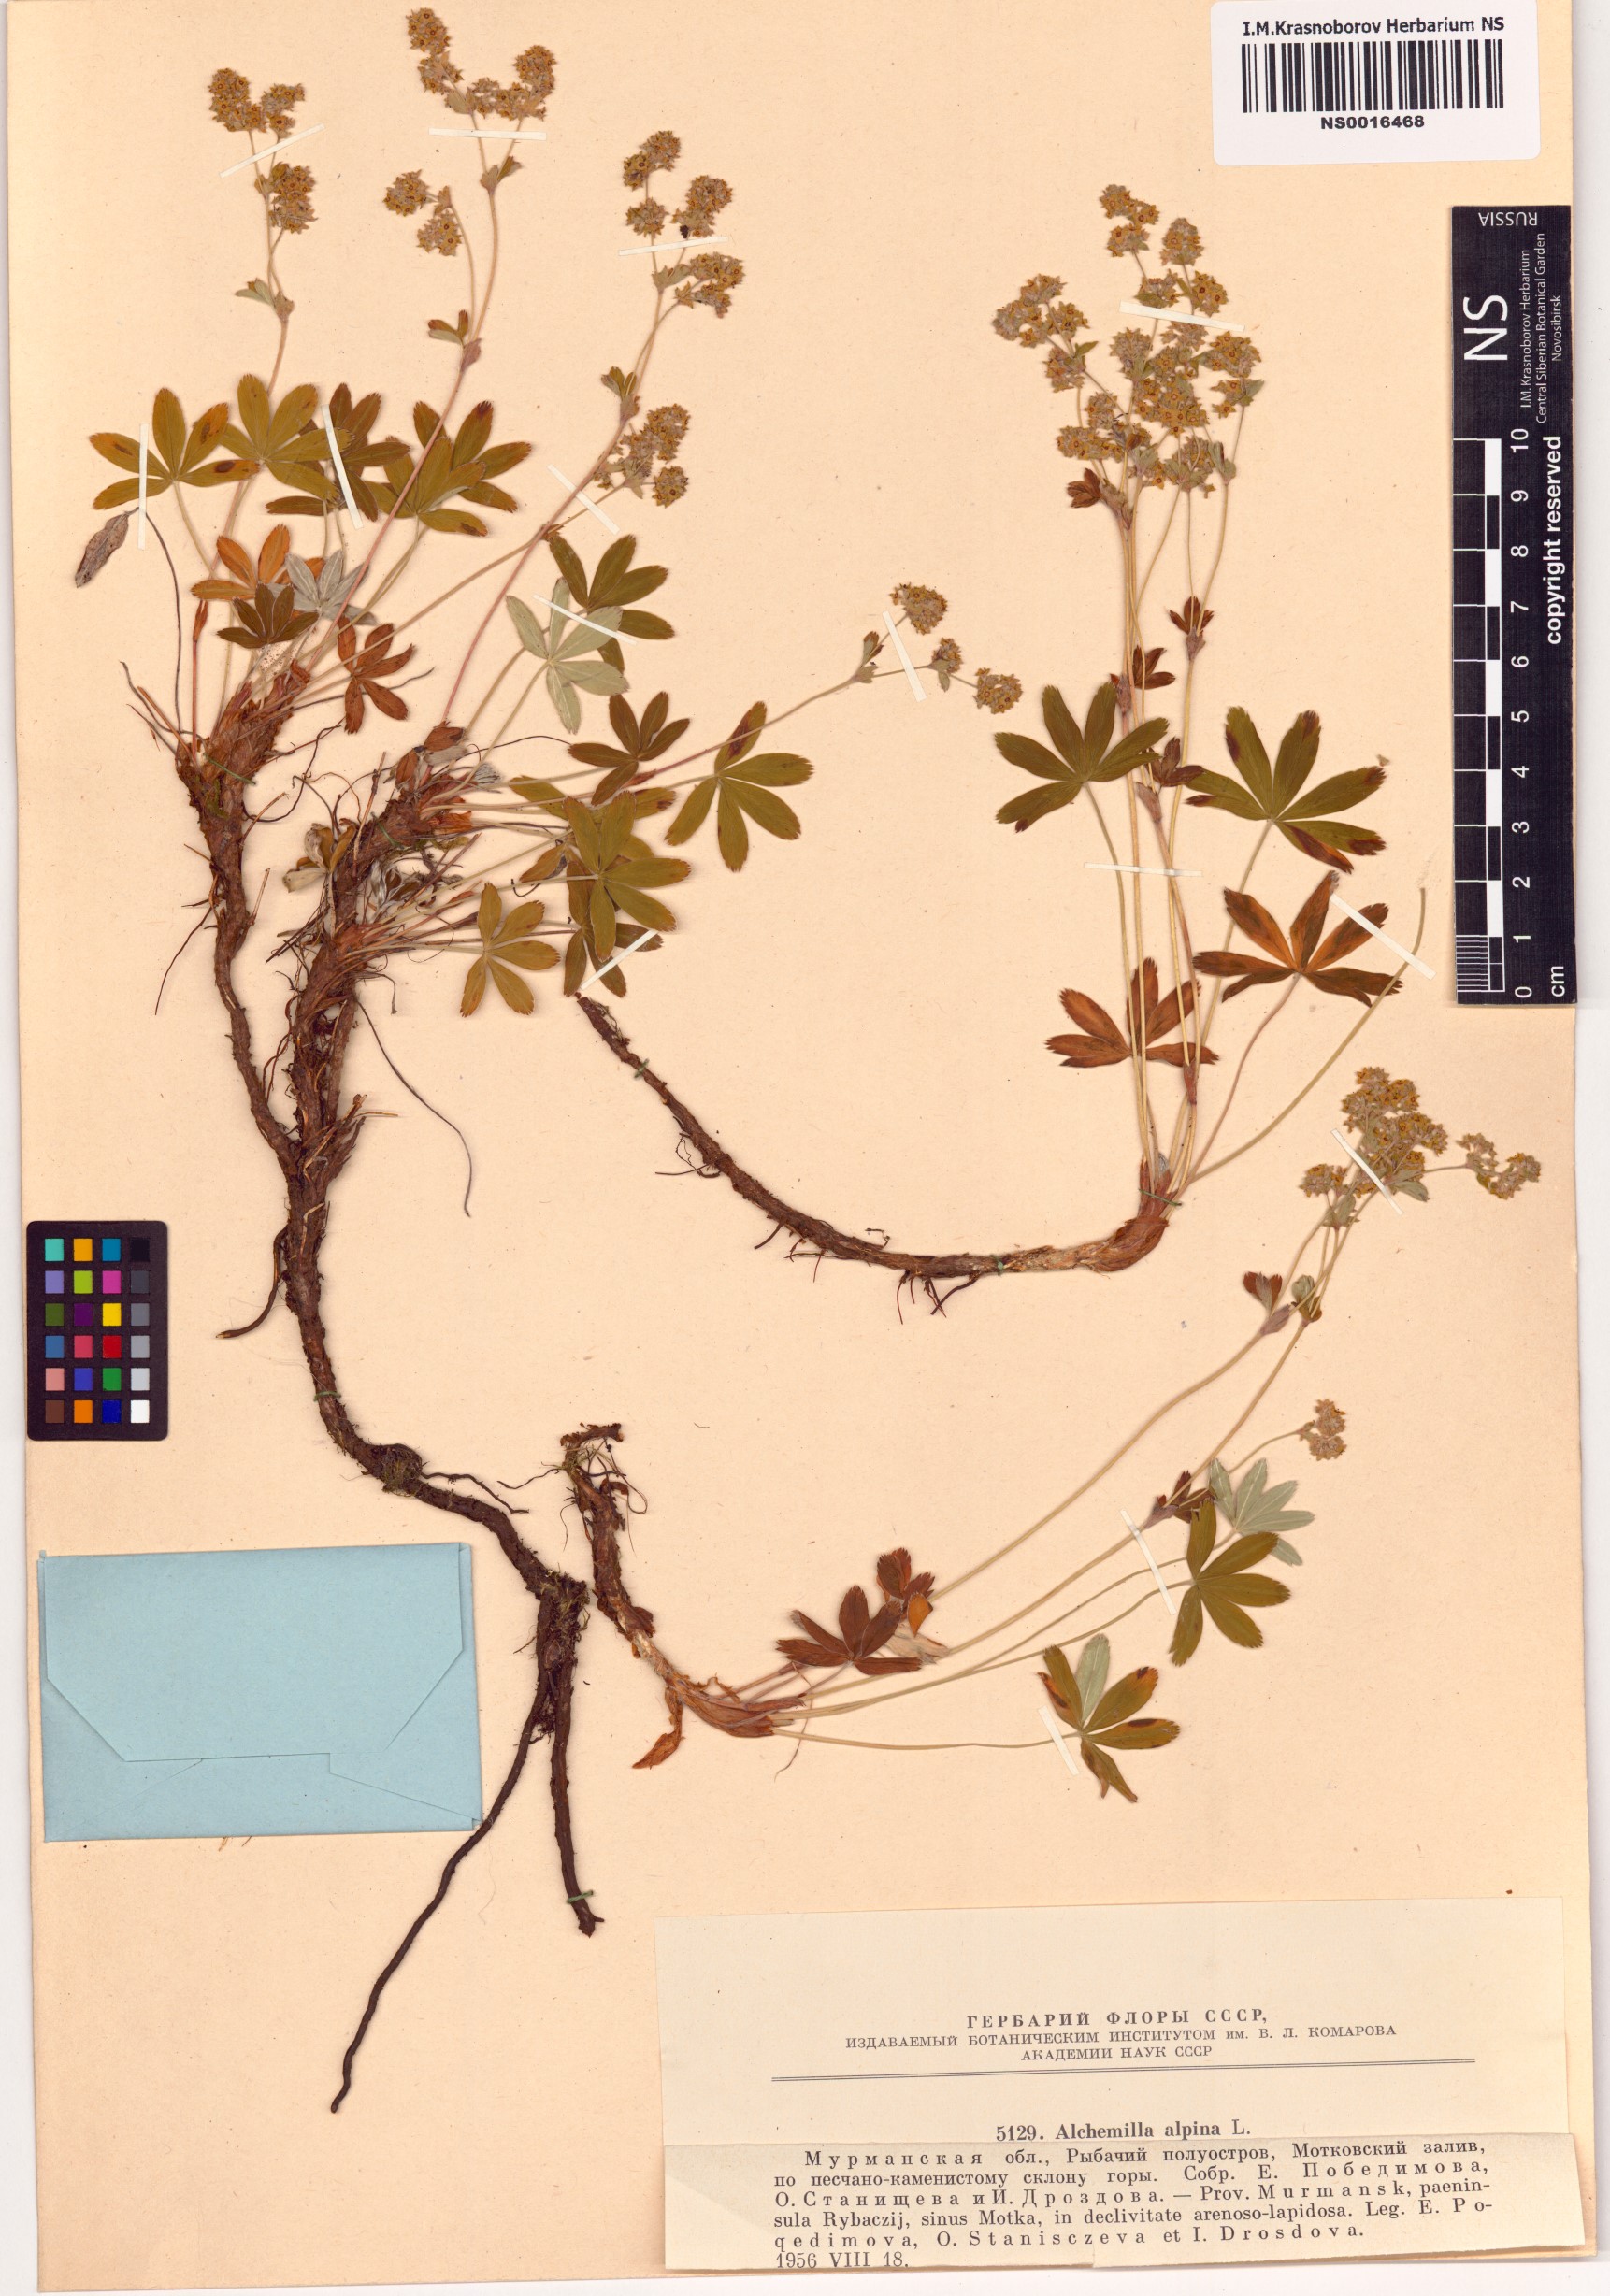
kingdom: Plantae
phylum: Tracheophyta
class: Magnoliopsida
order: Rosales
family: Rosaceae
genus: Alchemilla
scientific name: Alchemilla alpina
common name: Alpine lady's-mantle
